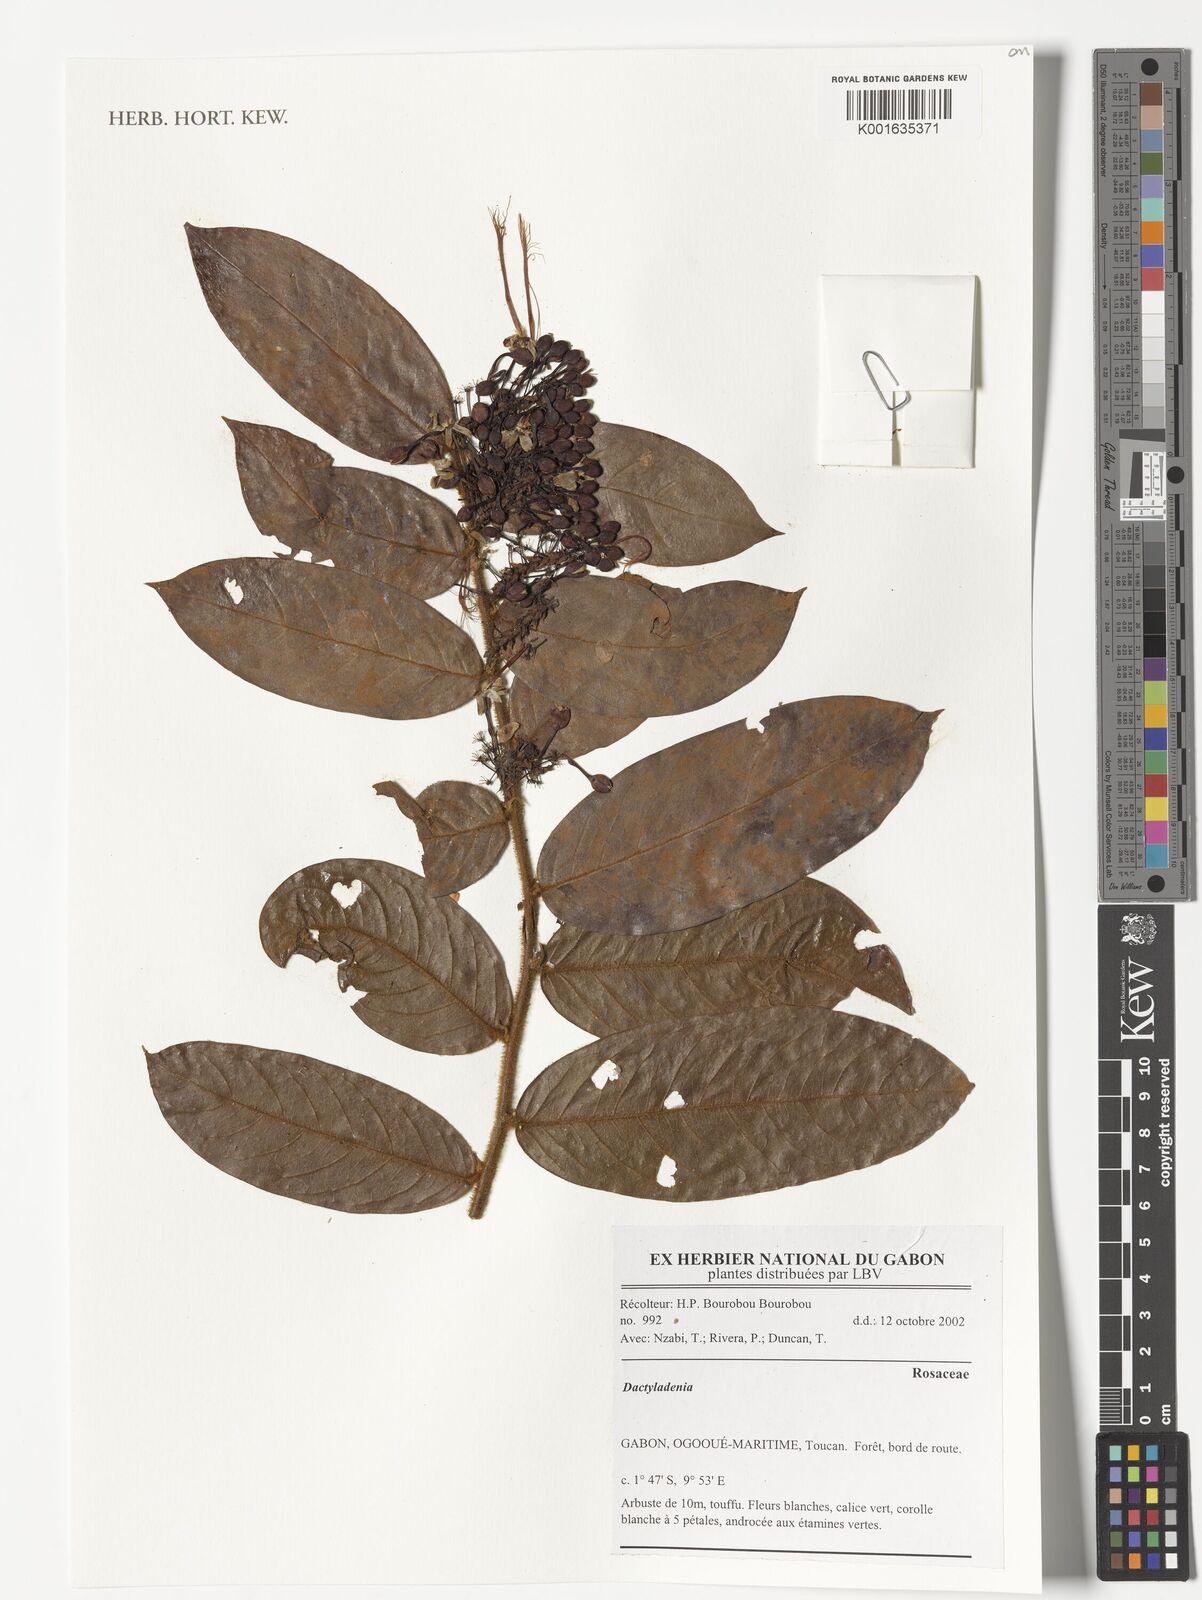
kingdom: Plantae
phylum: Tracheophyta
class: Magnoliopsida
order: Rosales
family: Rosaceae
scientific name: Rosaceae
